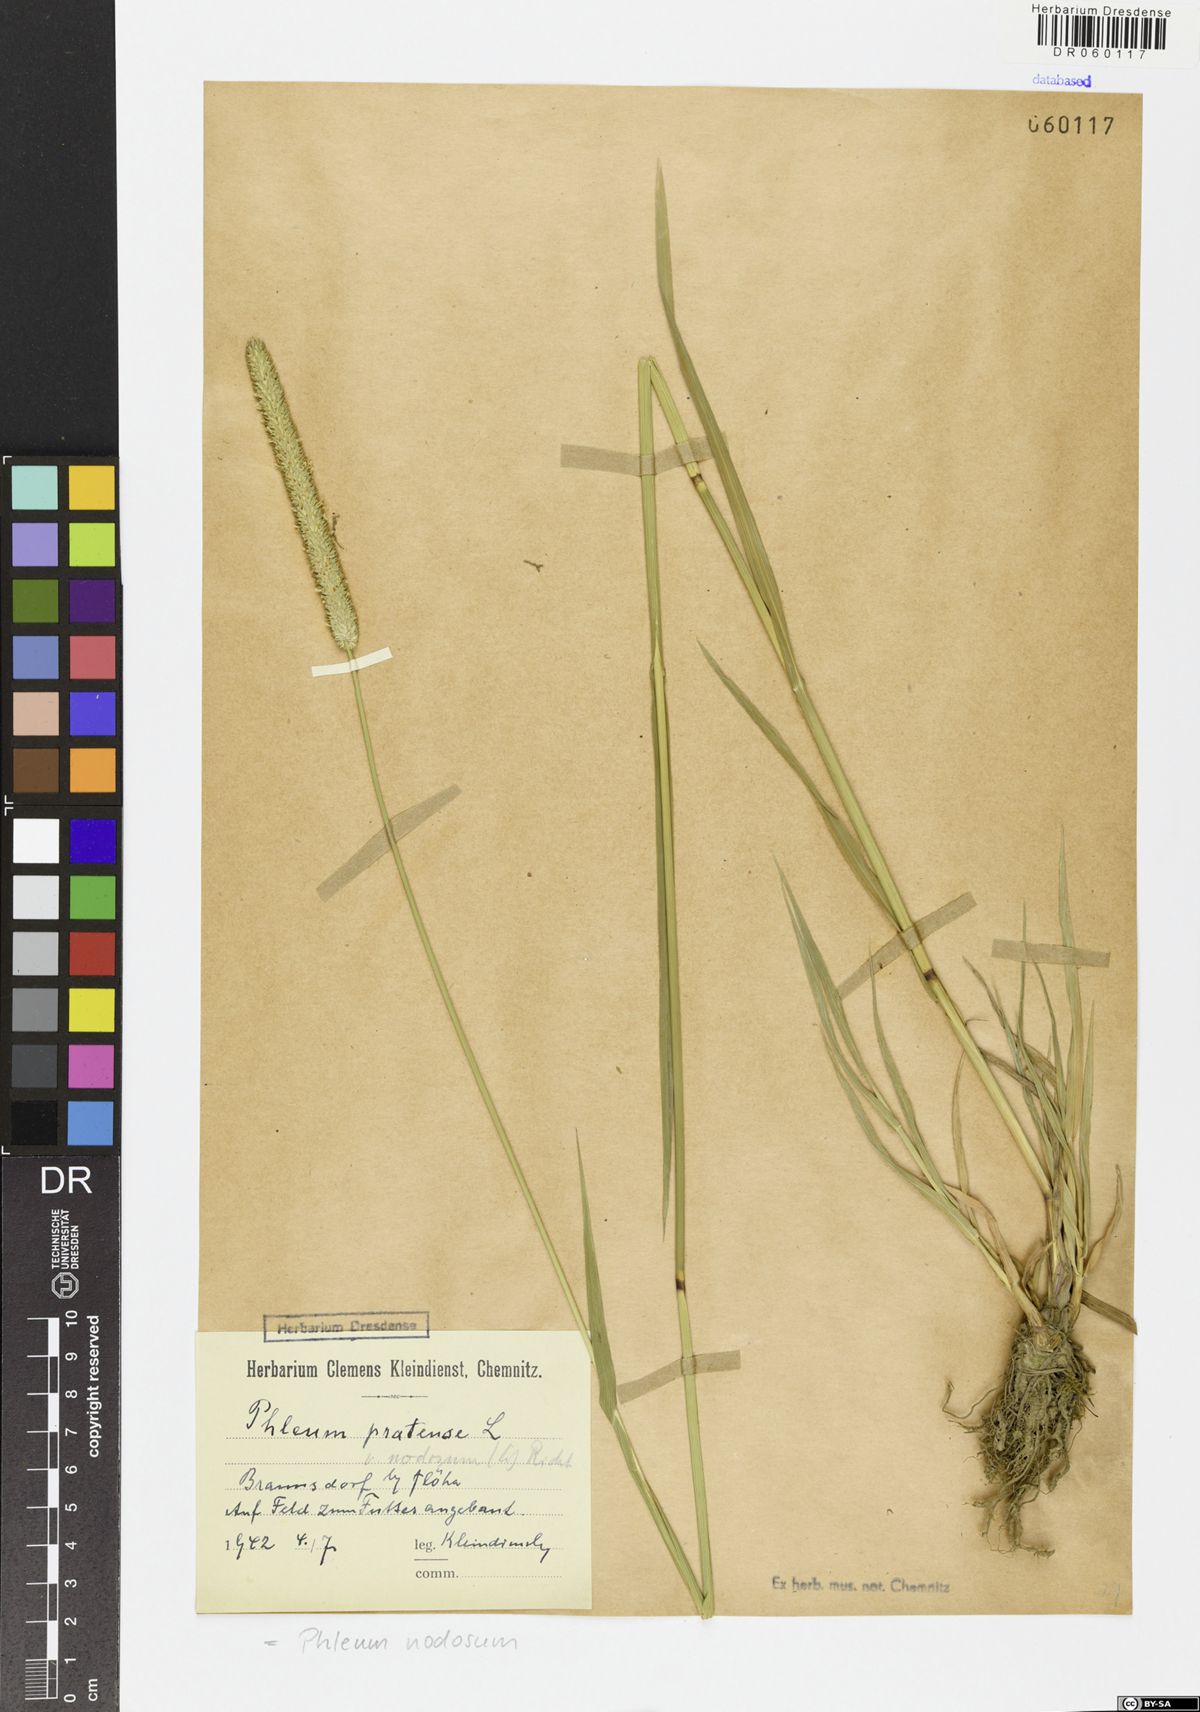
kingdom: Plantae
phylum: Tracheophyta
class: Liliopsida
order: Poales
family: Poaceae
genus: Phleum
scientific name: Phleum pratense
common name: Timothy grass
